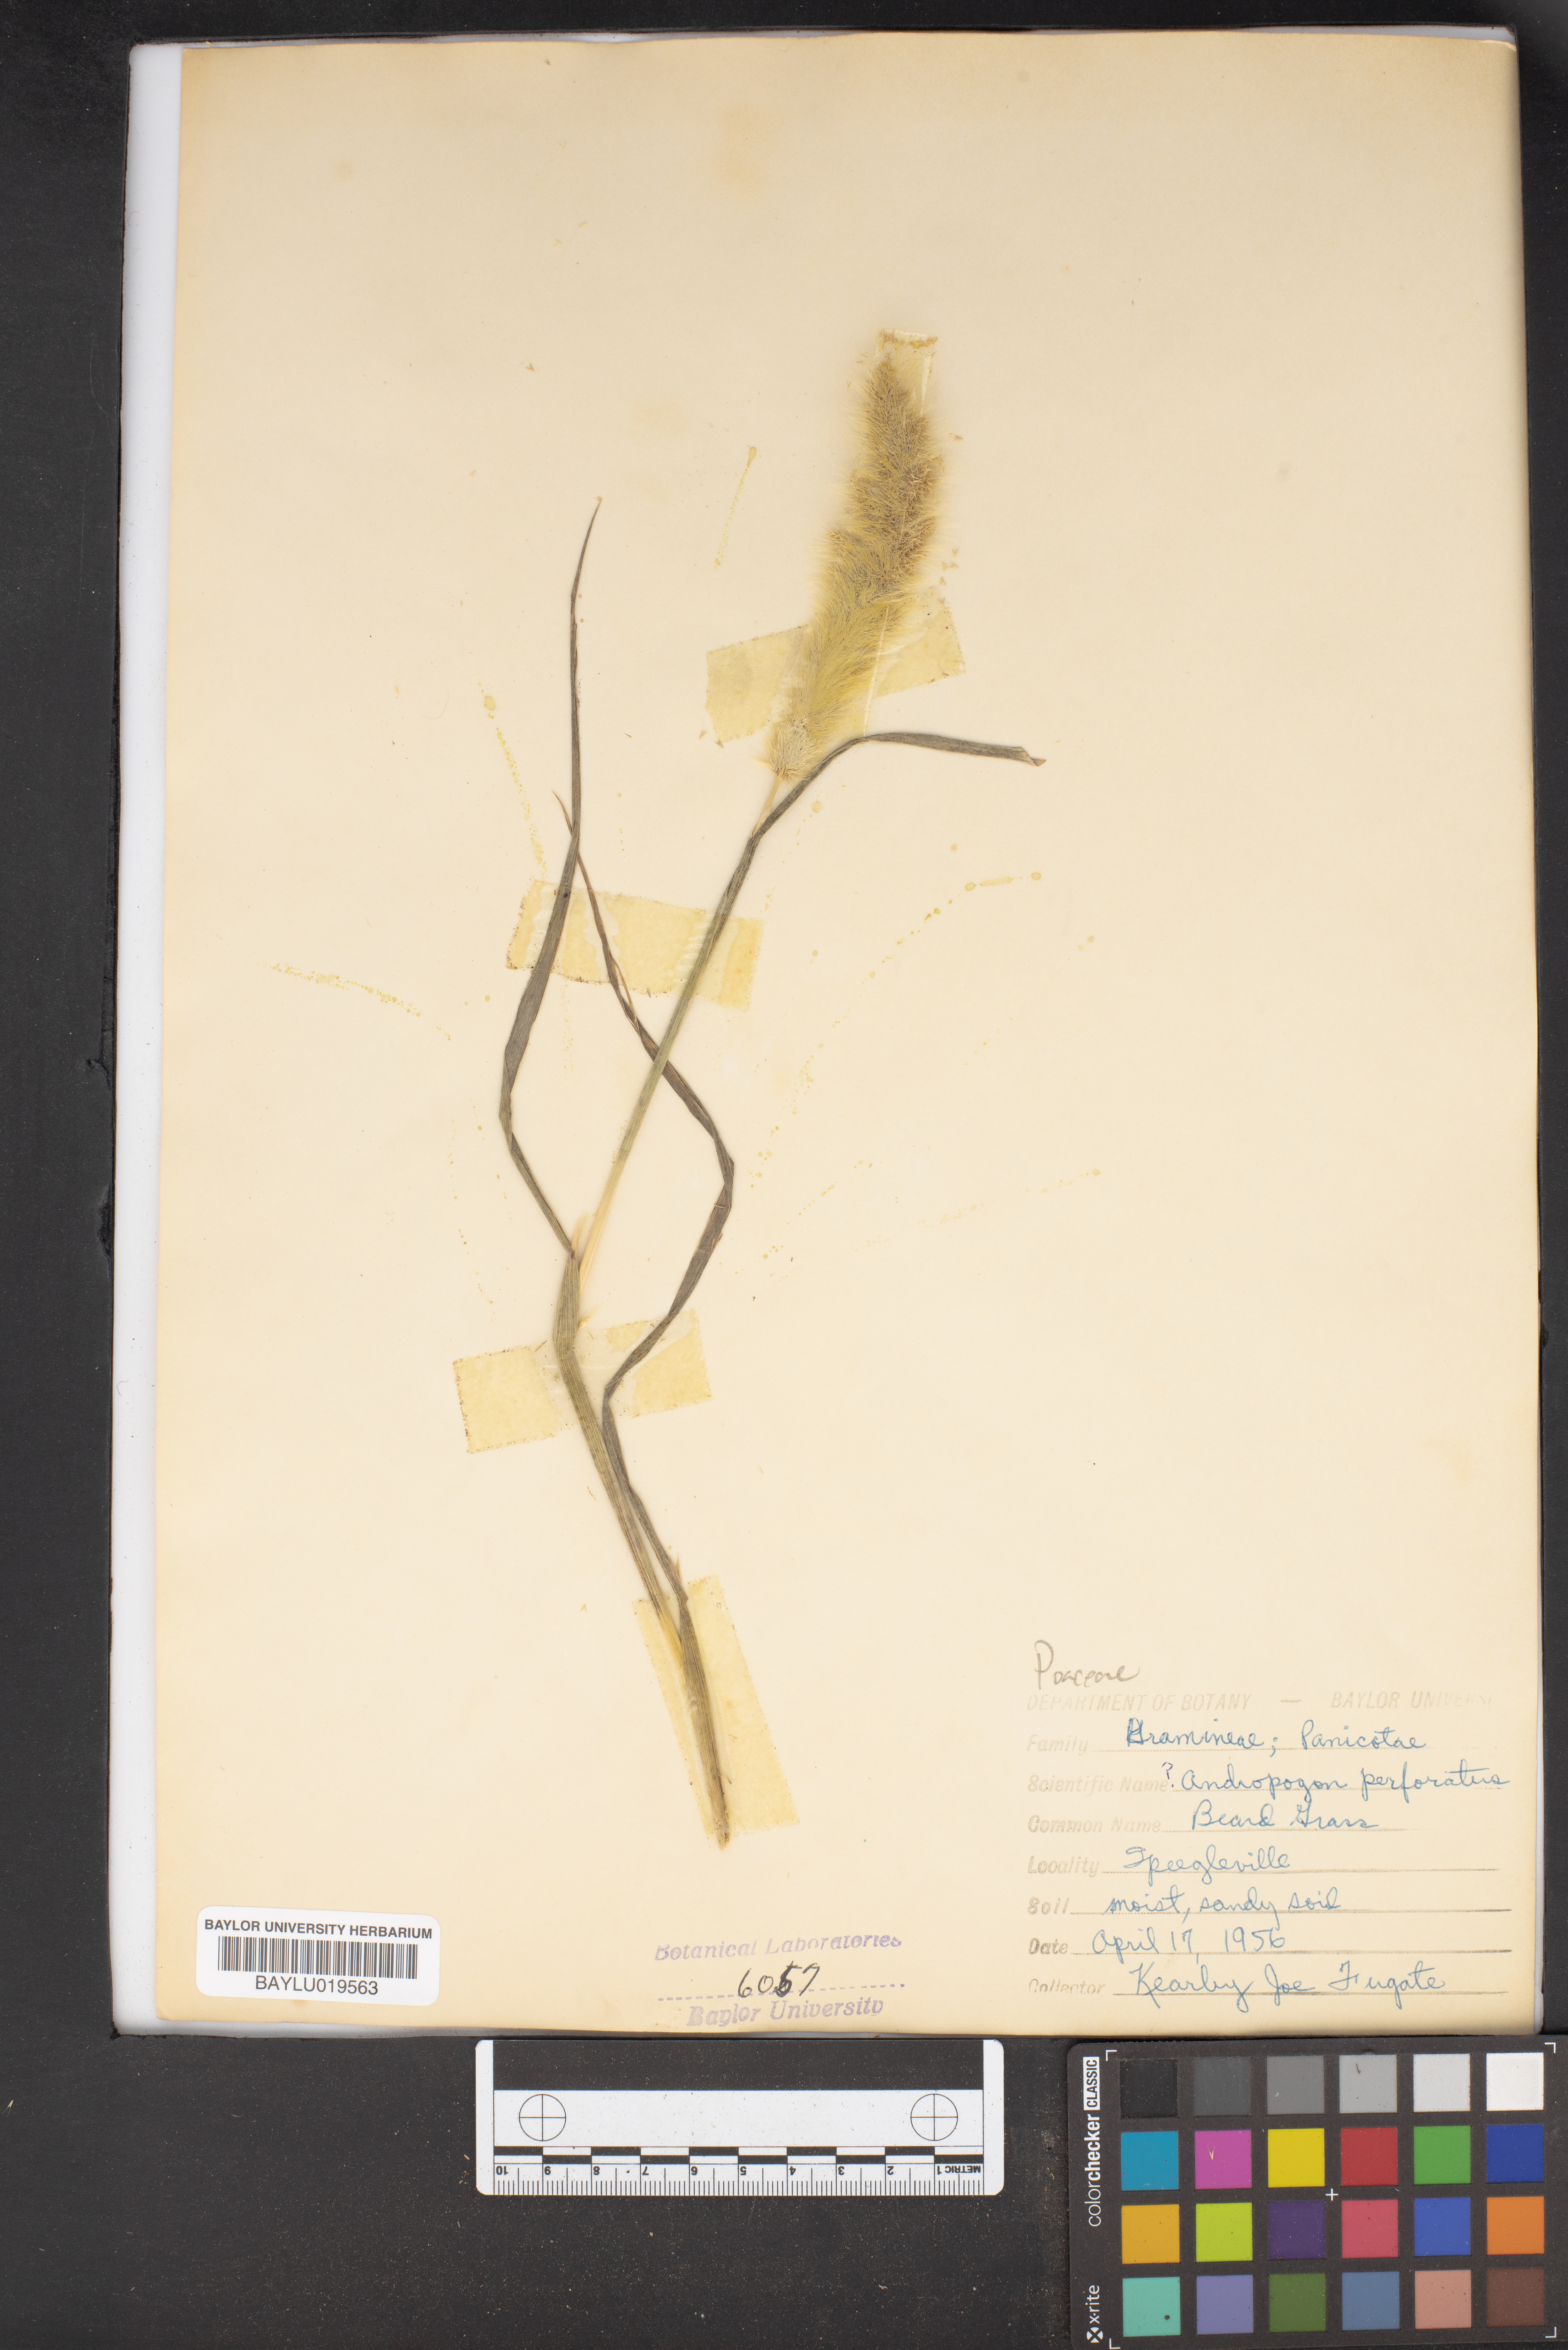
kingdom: Plantae
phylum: Tracheophyta
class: Liliopsida
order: Poales
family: Poaceae
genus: Bothriochloa
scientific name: Bothriochloa barbinodis
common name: Cane bluestem
